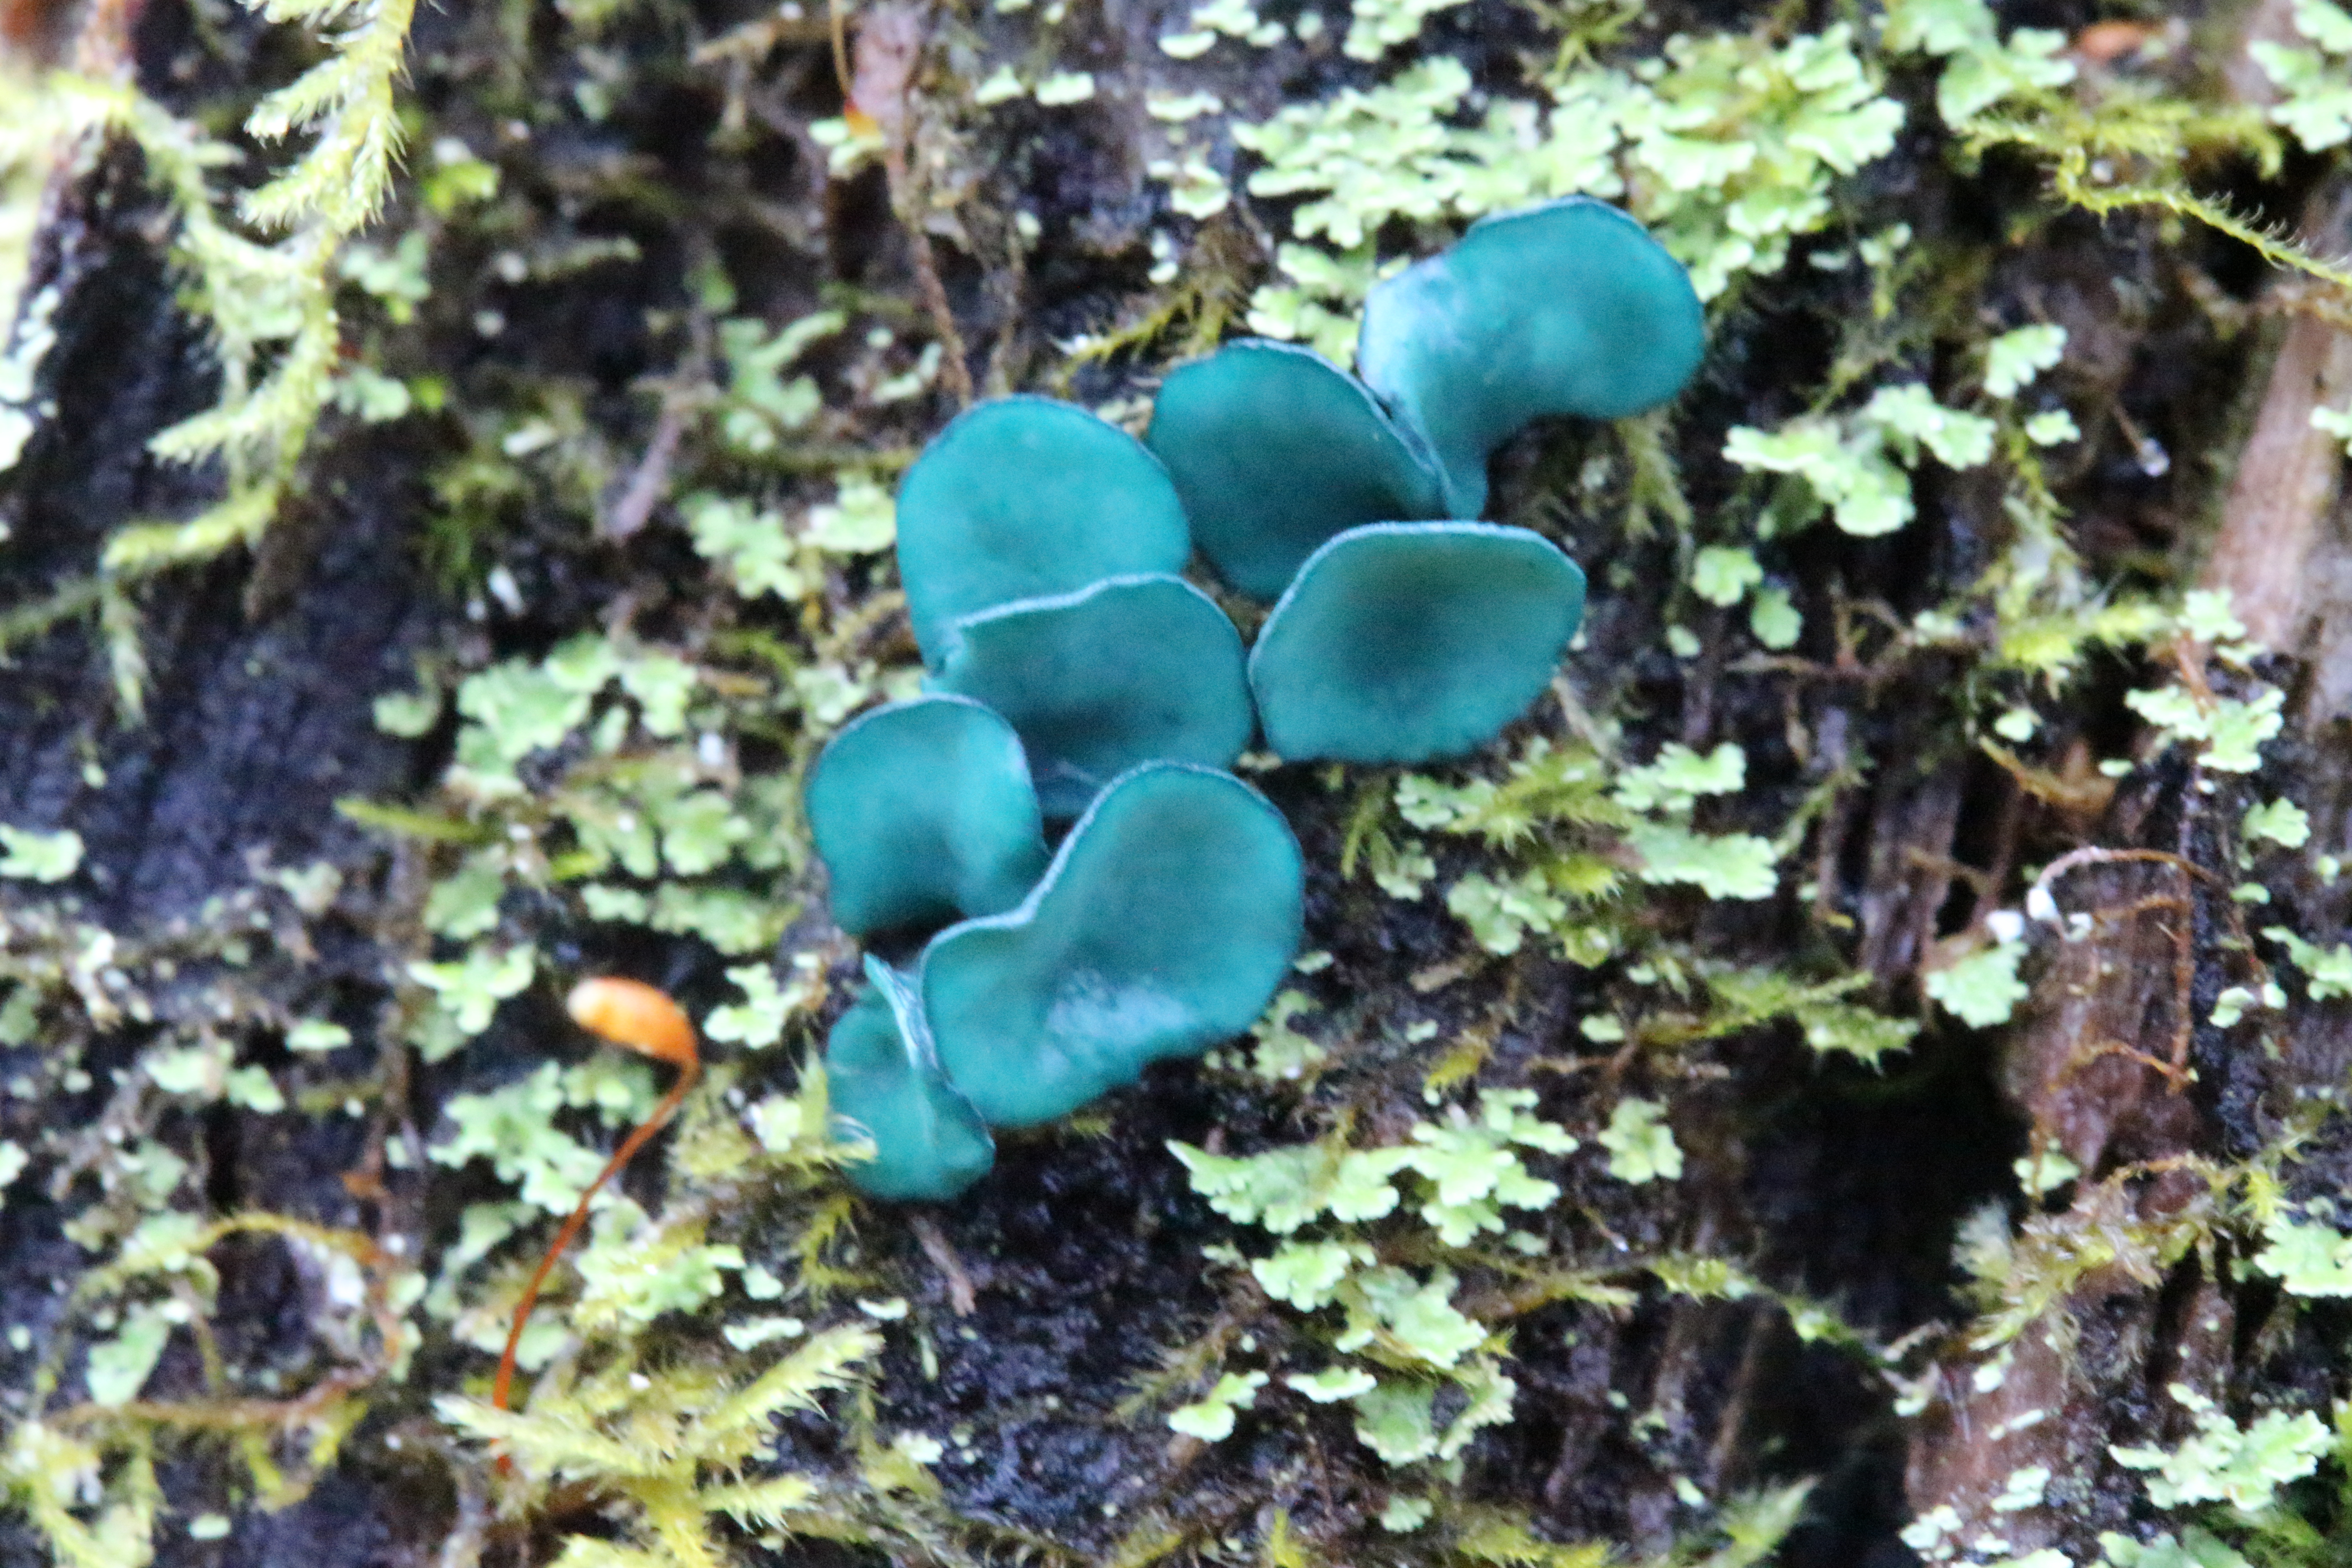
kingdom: Fungi
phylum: Ascomycota
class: Leotiomycetes
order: Helotiales
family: Chlorociboriaceae
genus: Chlorociboria
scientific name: Chlorociboria aeruginascens
